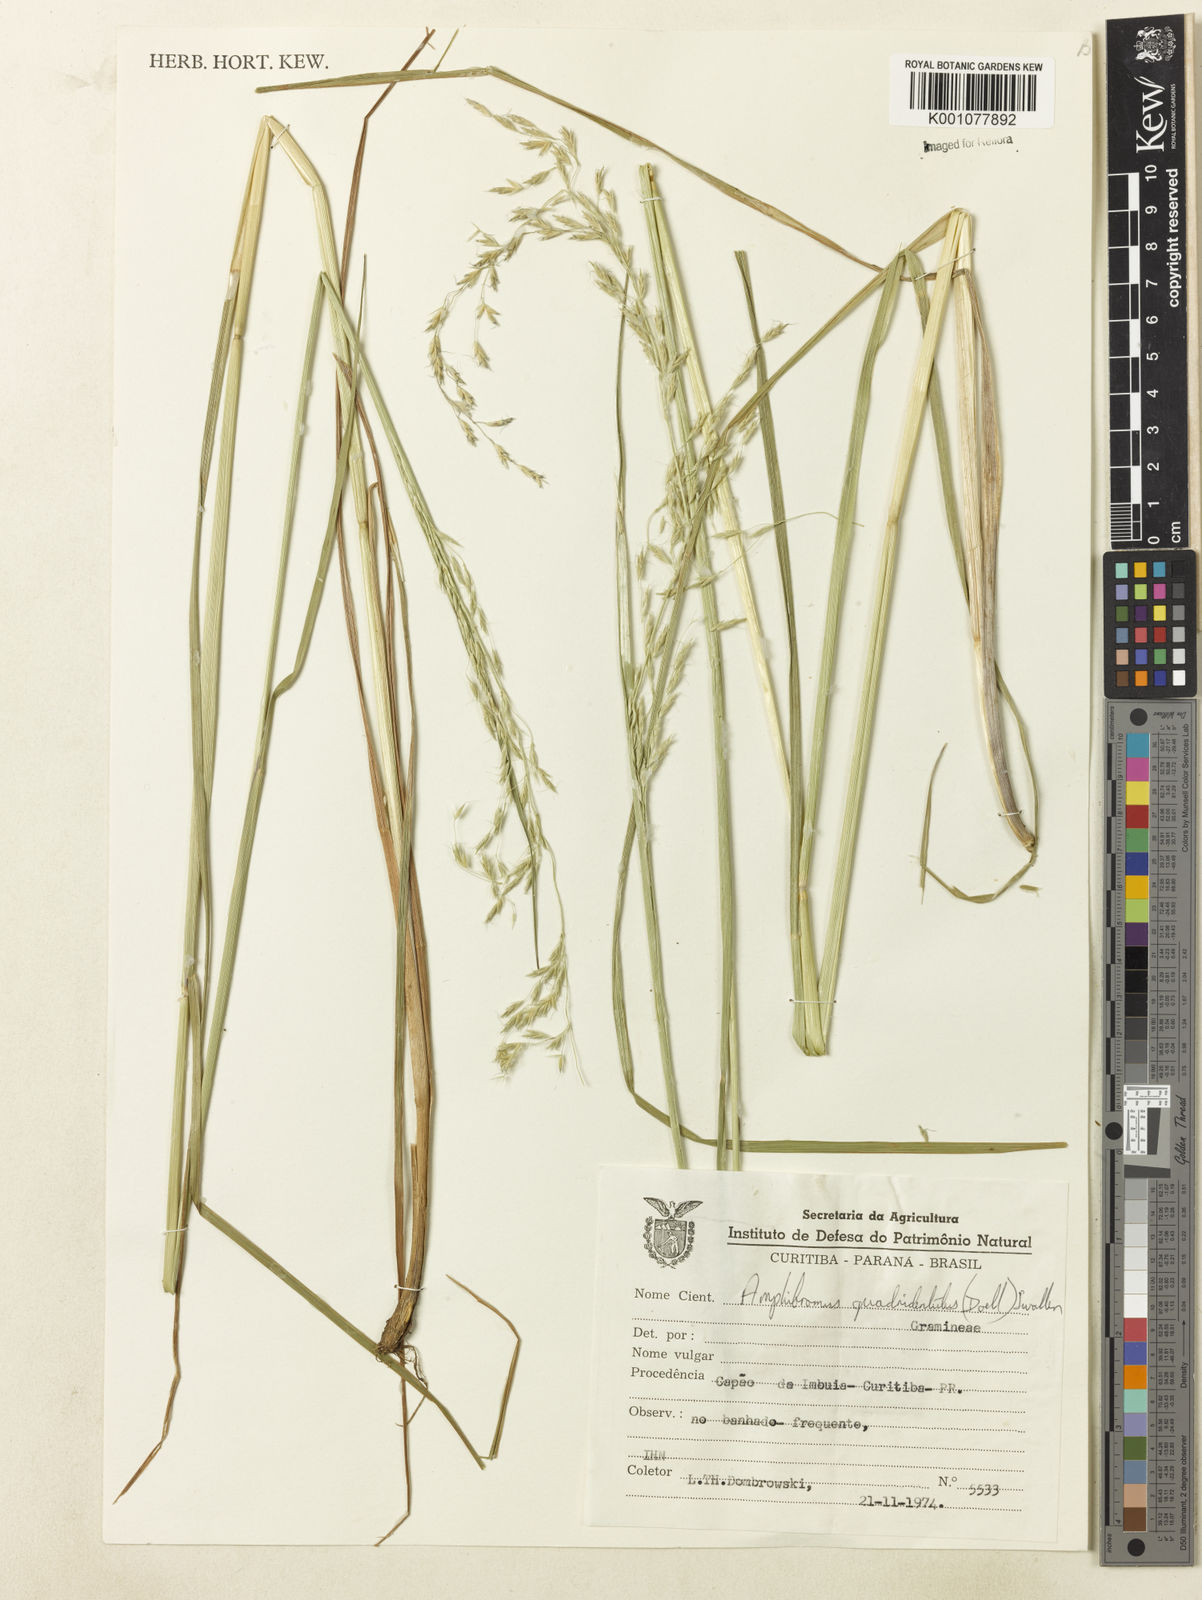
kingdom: Plantae
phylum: Tracheophyta
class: Liliopsida
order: Poales
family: Poaceae
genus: Helictotrichon
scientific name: Helictotrichon
